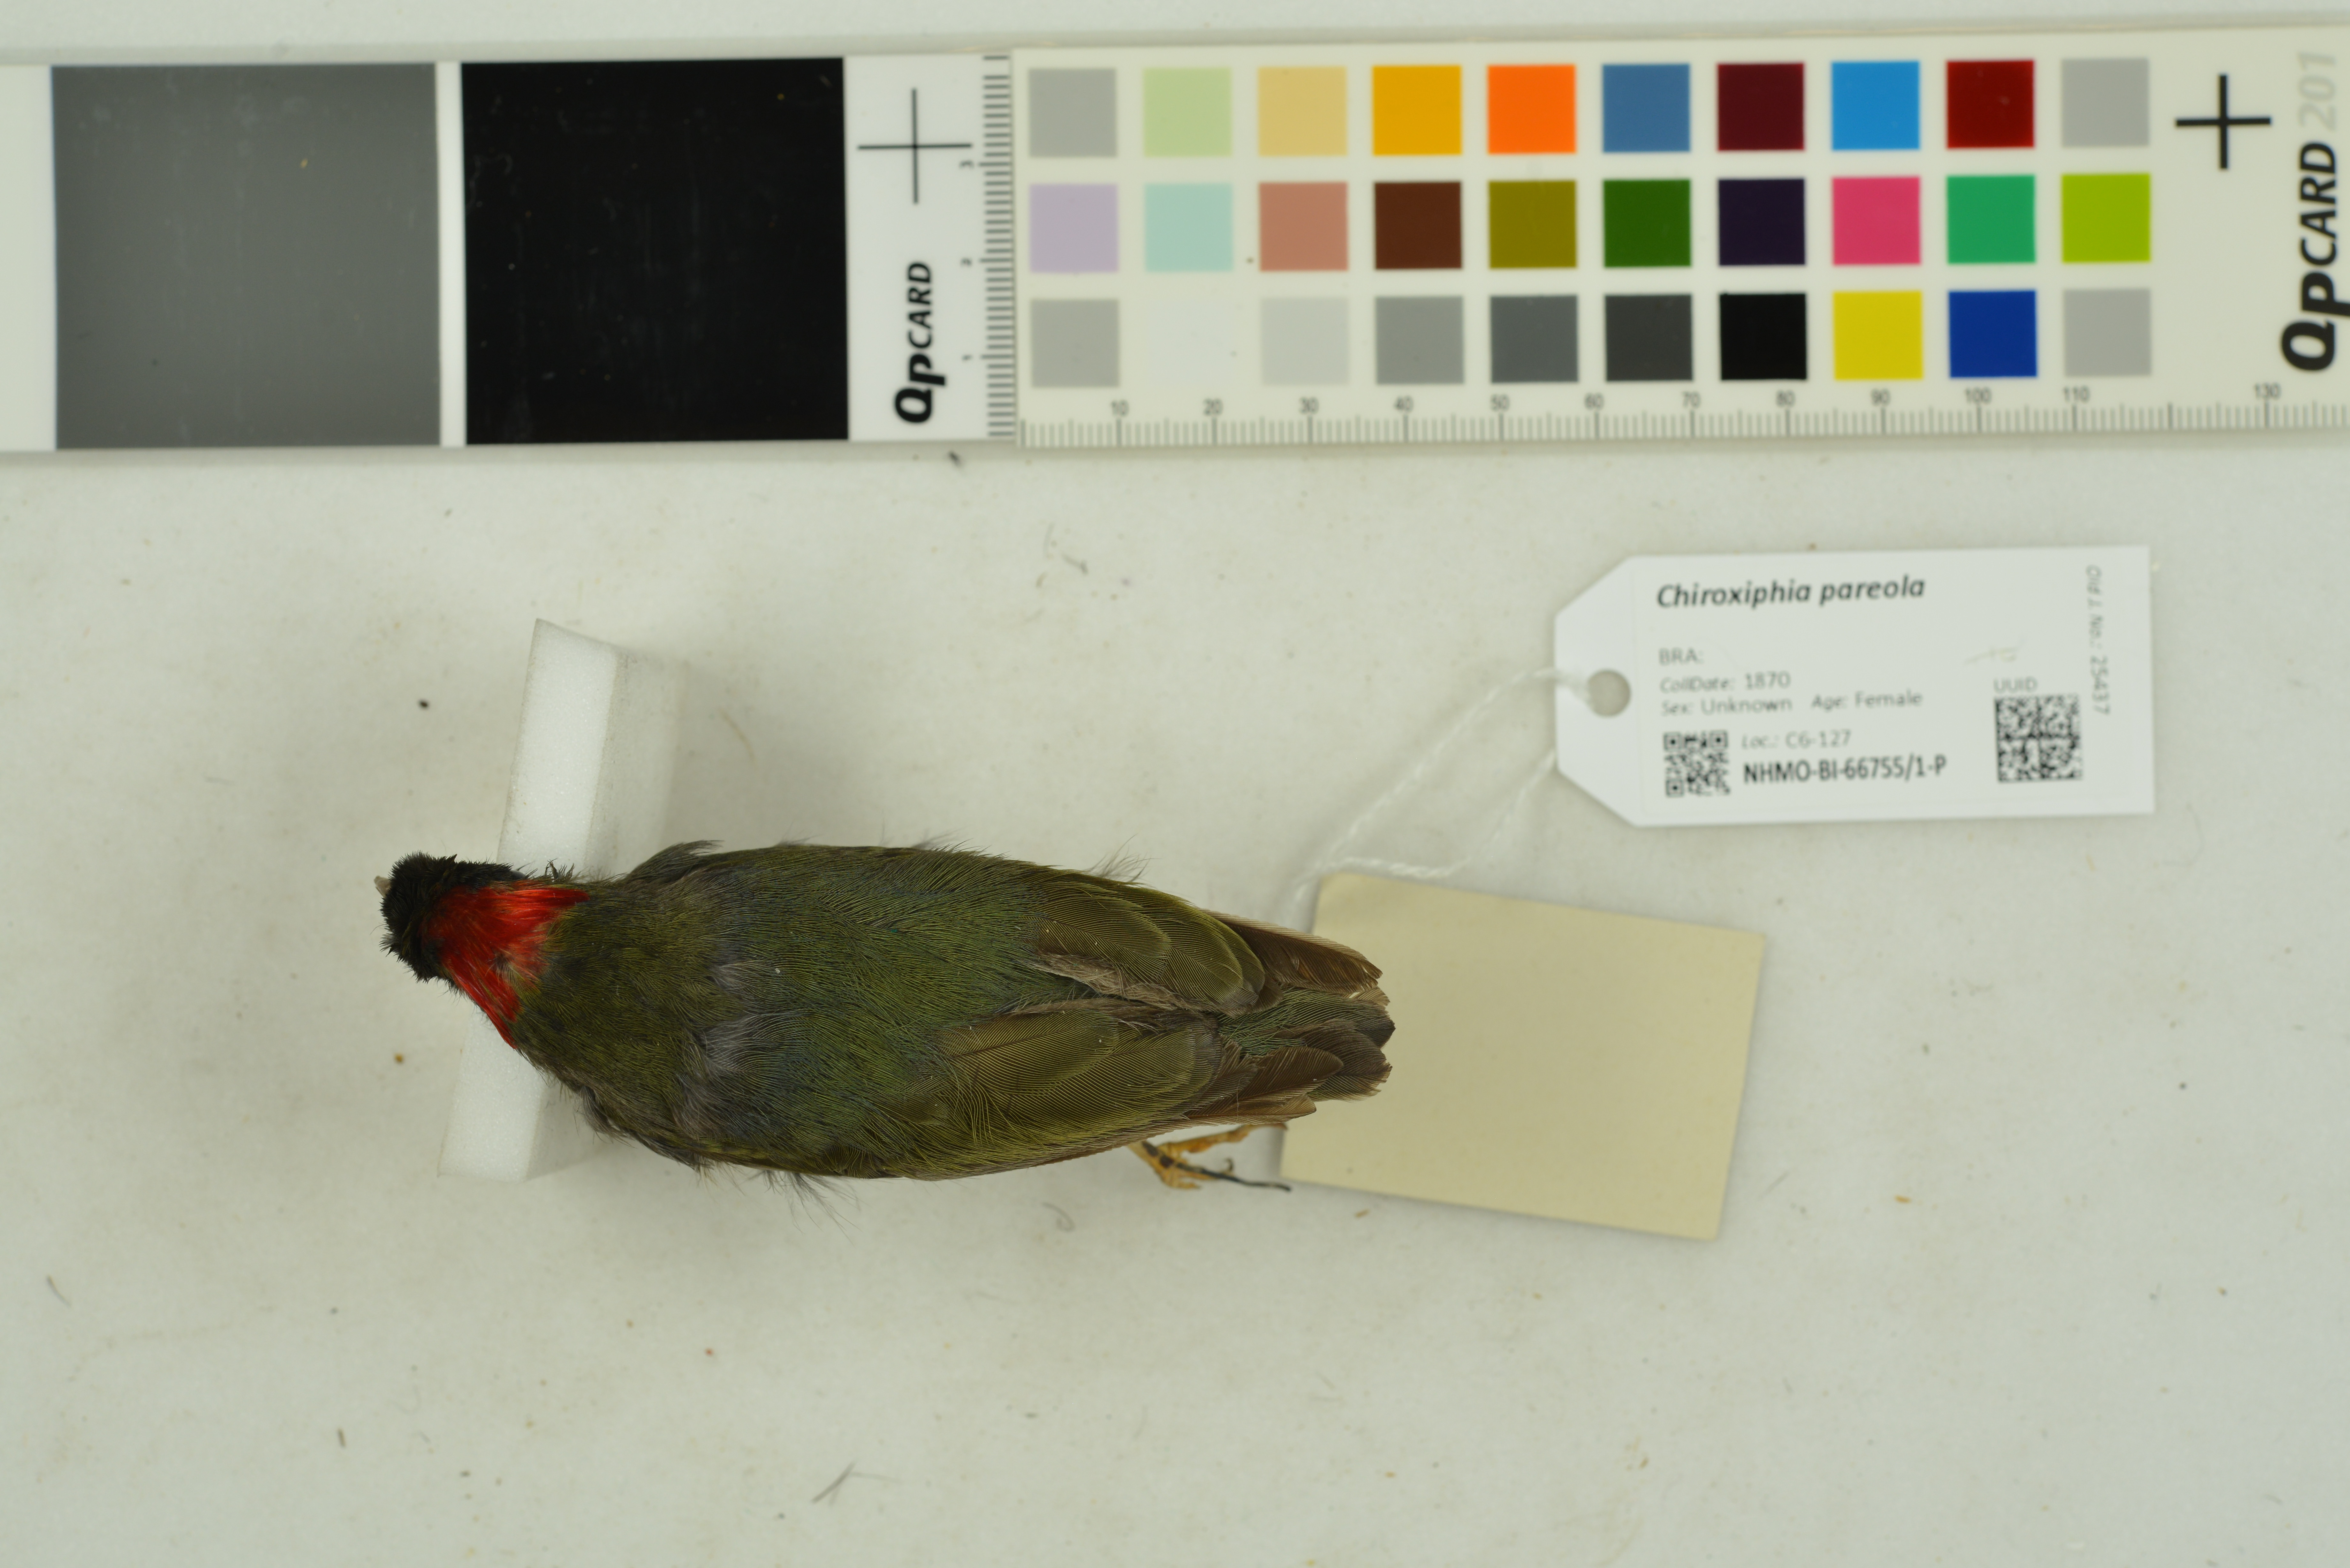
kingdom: Animalia
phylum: Chordata
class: Aves
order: Passeriformes
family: Pipridae
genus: Chiroxiphia
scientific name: Chiroxiphia pareola
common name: Blue-backed manakin
